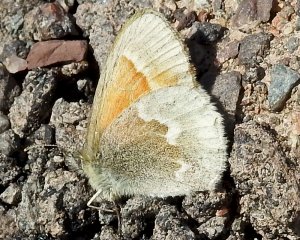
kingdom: Animalia
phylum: Arthropoda
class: Insecta
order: Lepidoptera
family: Nymphalidae
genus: Coenonympha
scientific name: Coenonympha tullia
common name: Large Heath
